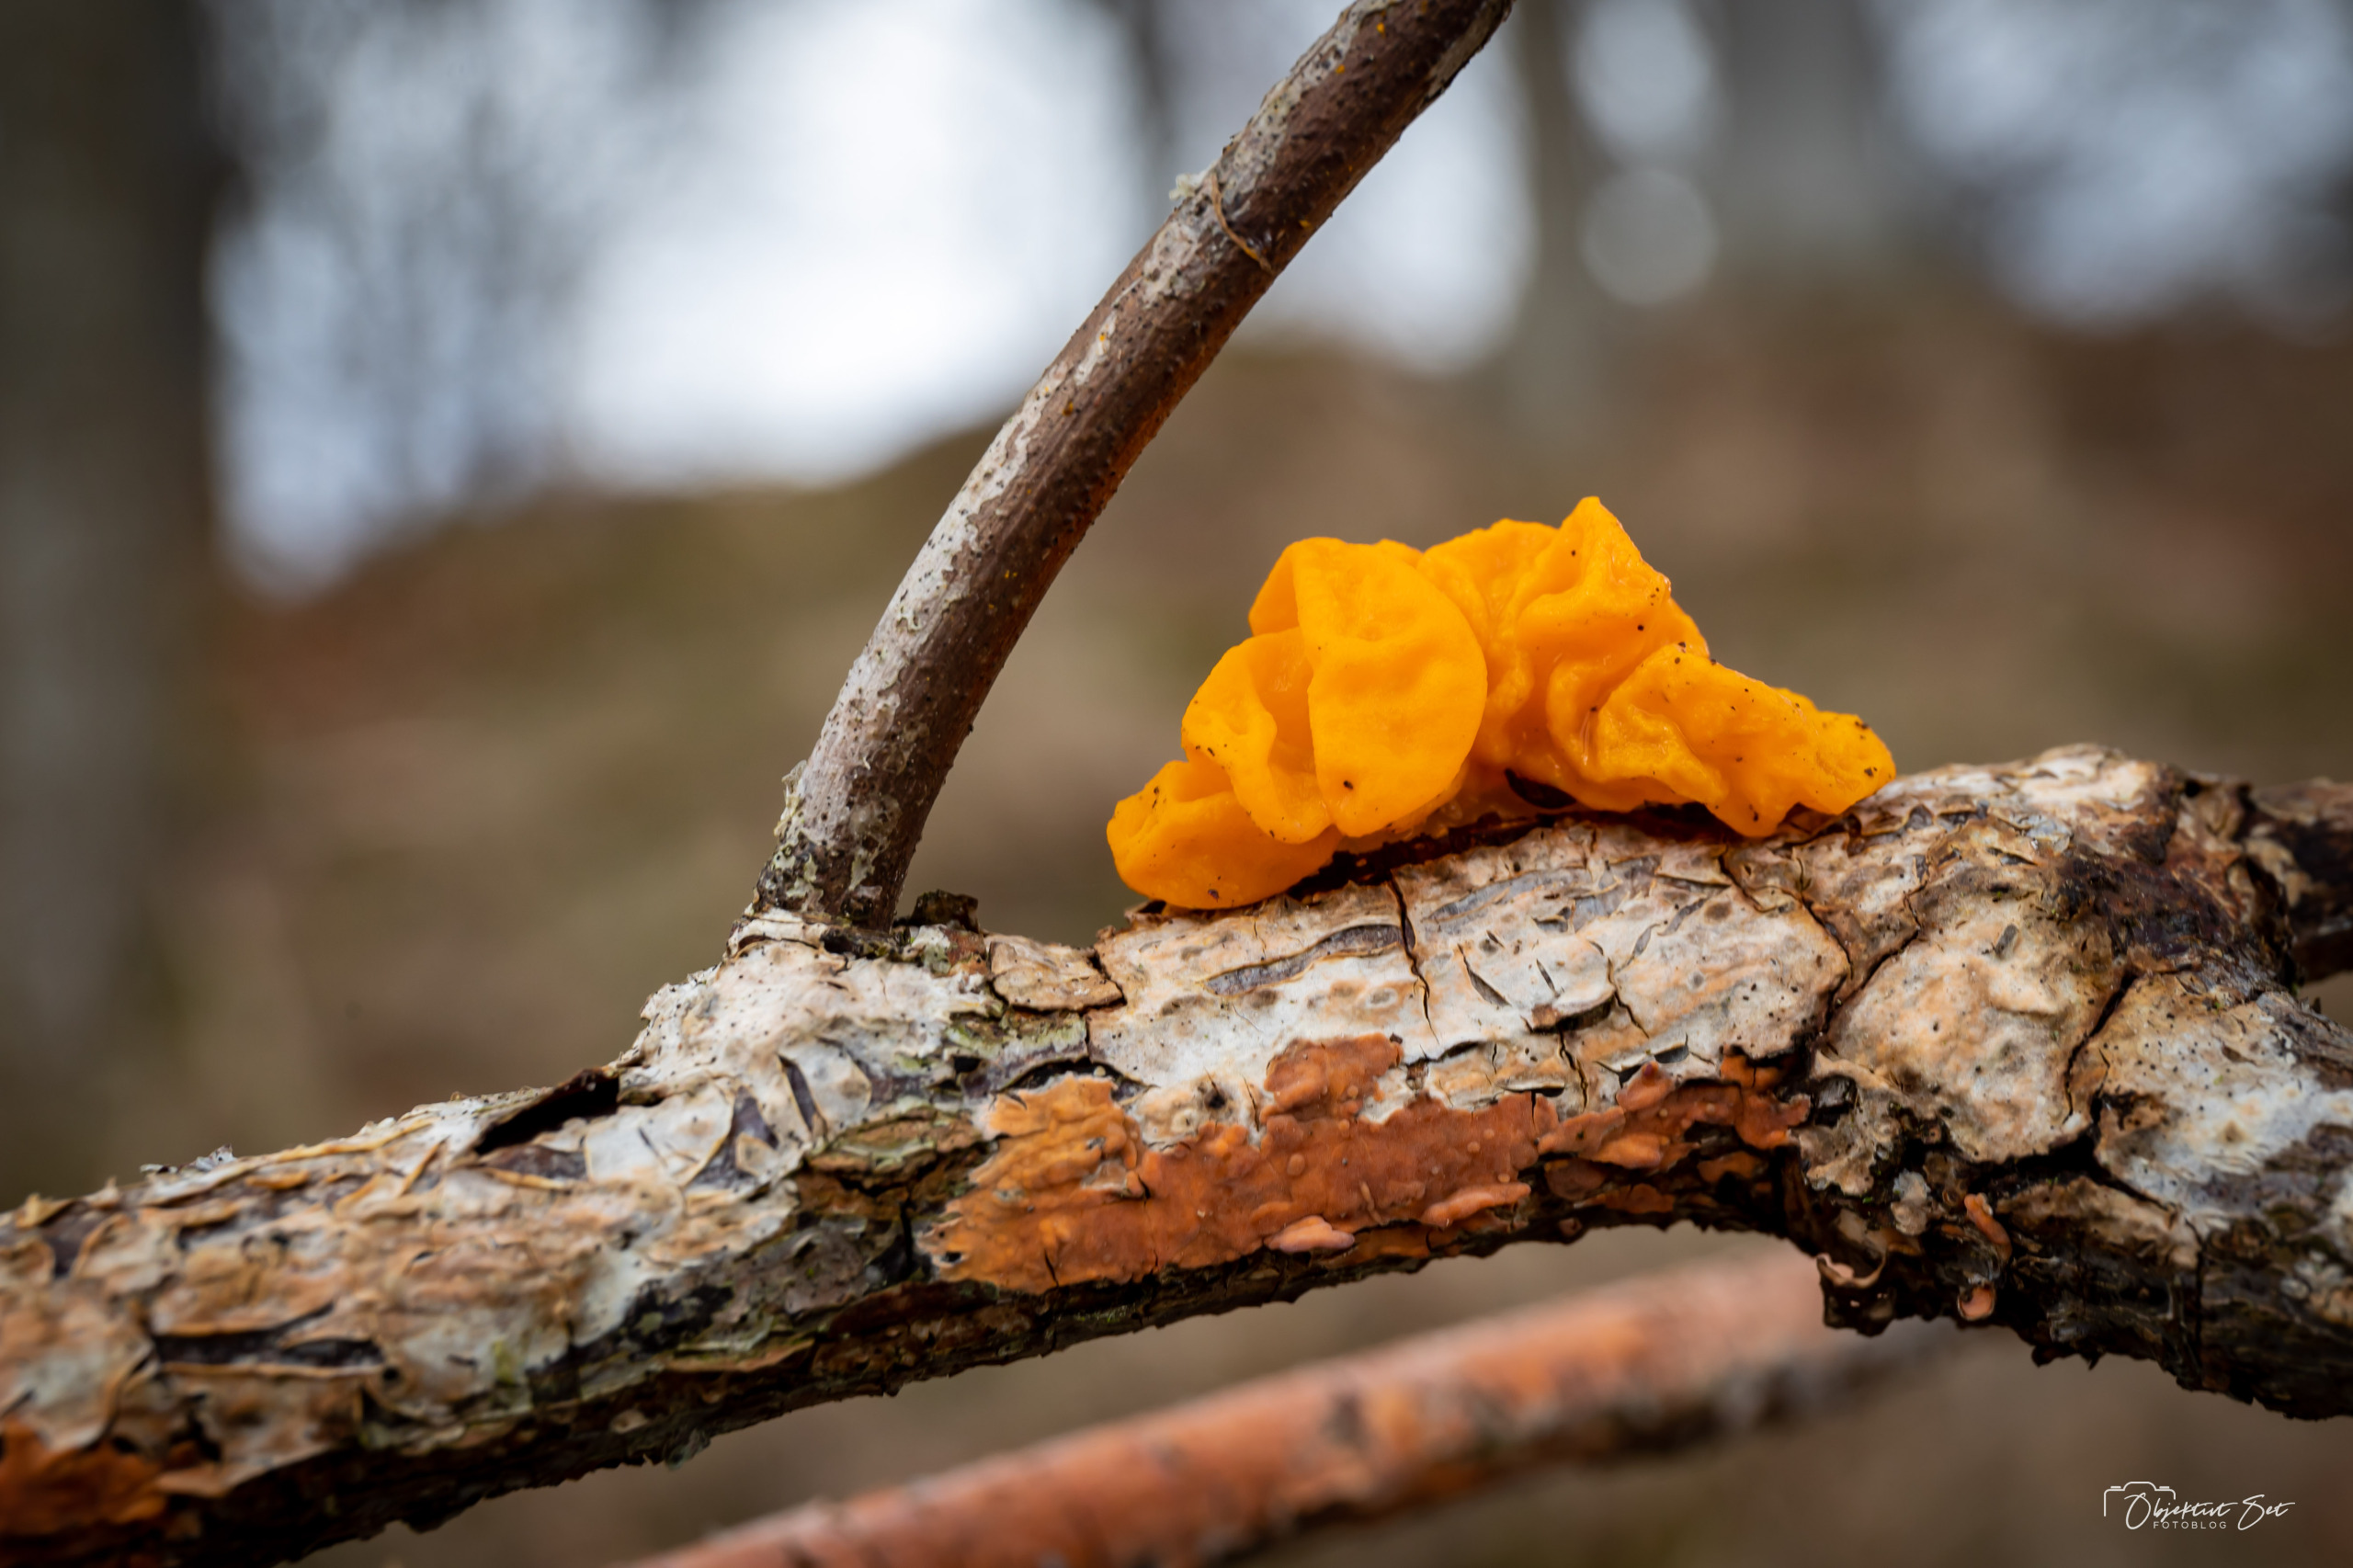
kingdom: Fungi
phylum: Basidiomycota
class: Tremellomycetes
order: Tremellales
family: Tremellaceae
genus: Tremella
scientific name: Tremella mesenterica
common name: Gul bævresvamp
